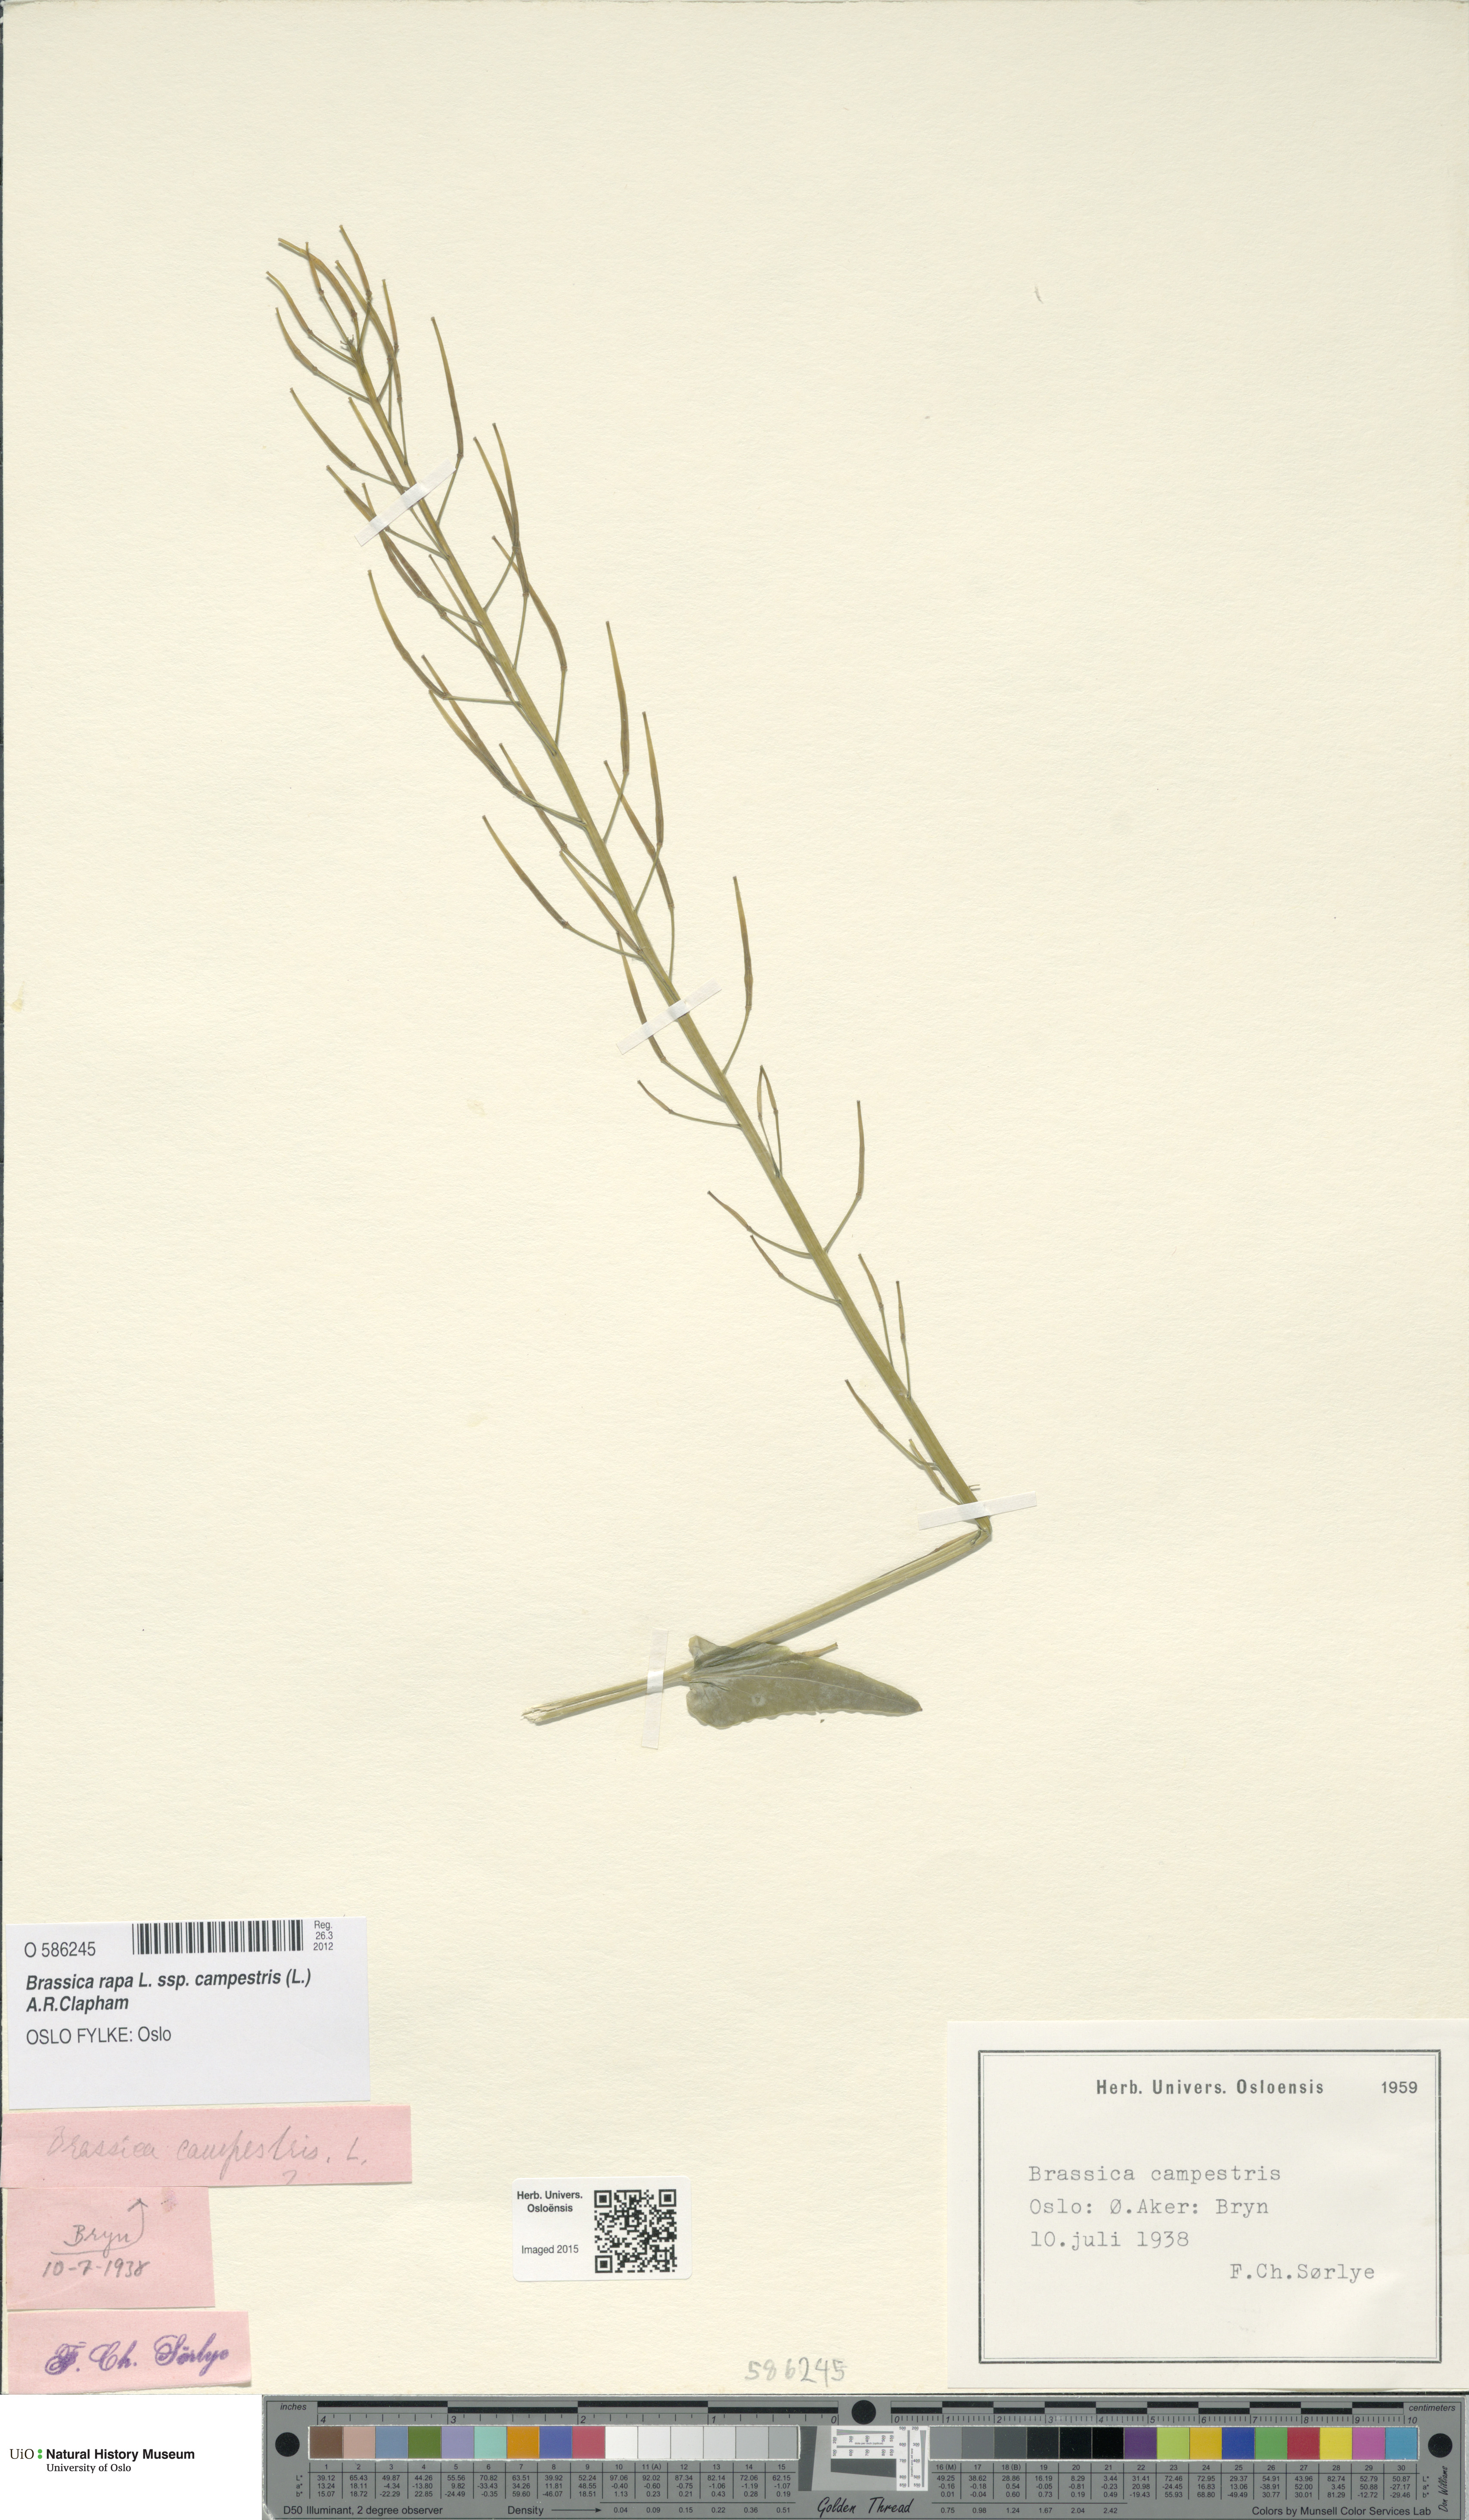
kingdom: Plantae
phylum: Tracheophyta
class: Magnoliopsida
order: Brassicales
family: Brassicaceae
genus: Brassica
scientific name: Brassica rapa
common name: Field mustard
